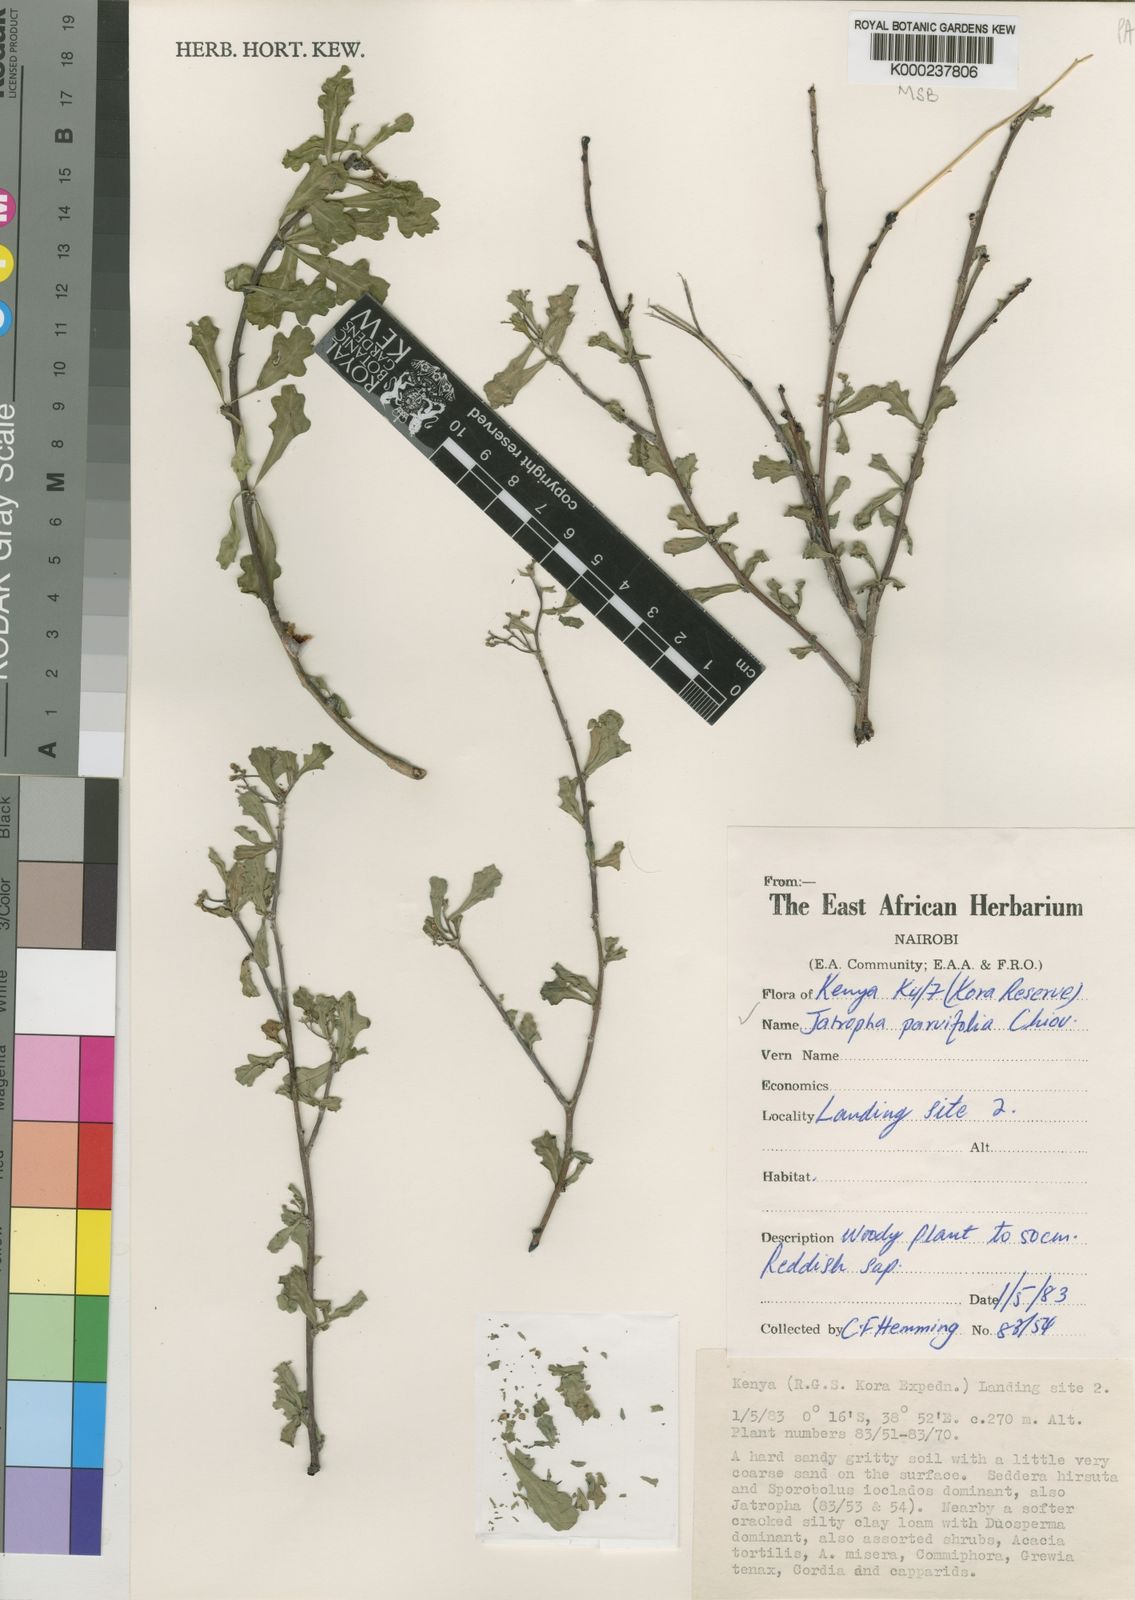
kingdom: Plantae
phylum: Tracheophyta
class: Magnoliopsida
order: Malpighiales
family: Euphorbiaceae
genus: Jatropha
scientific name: Jatropha
